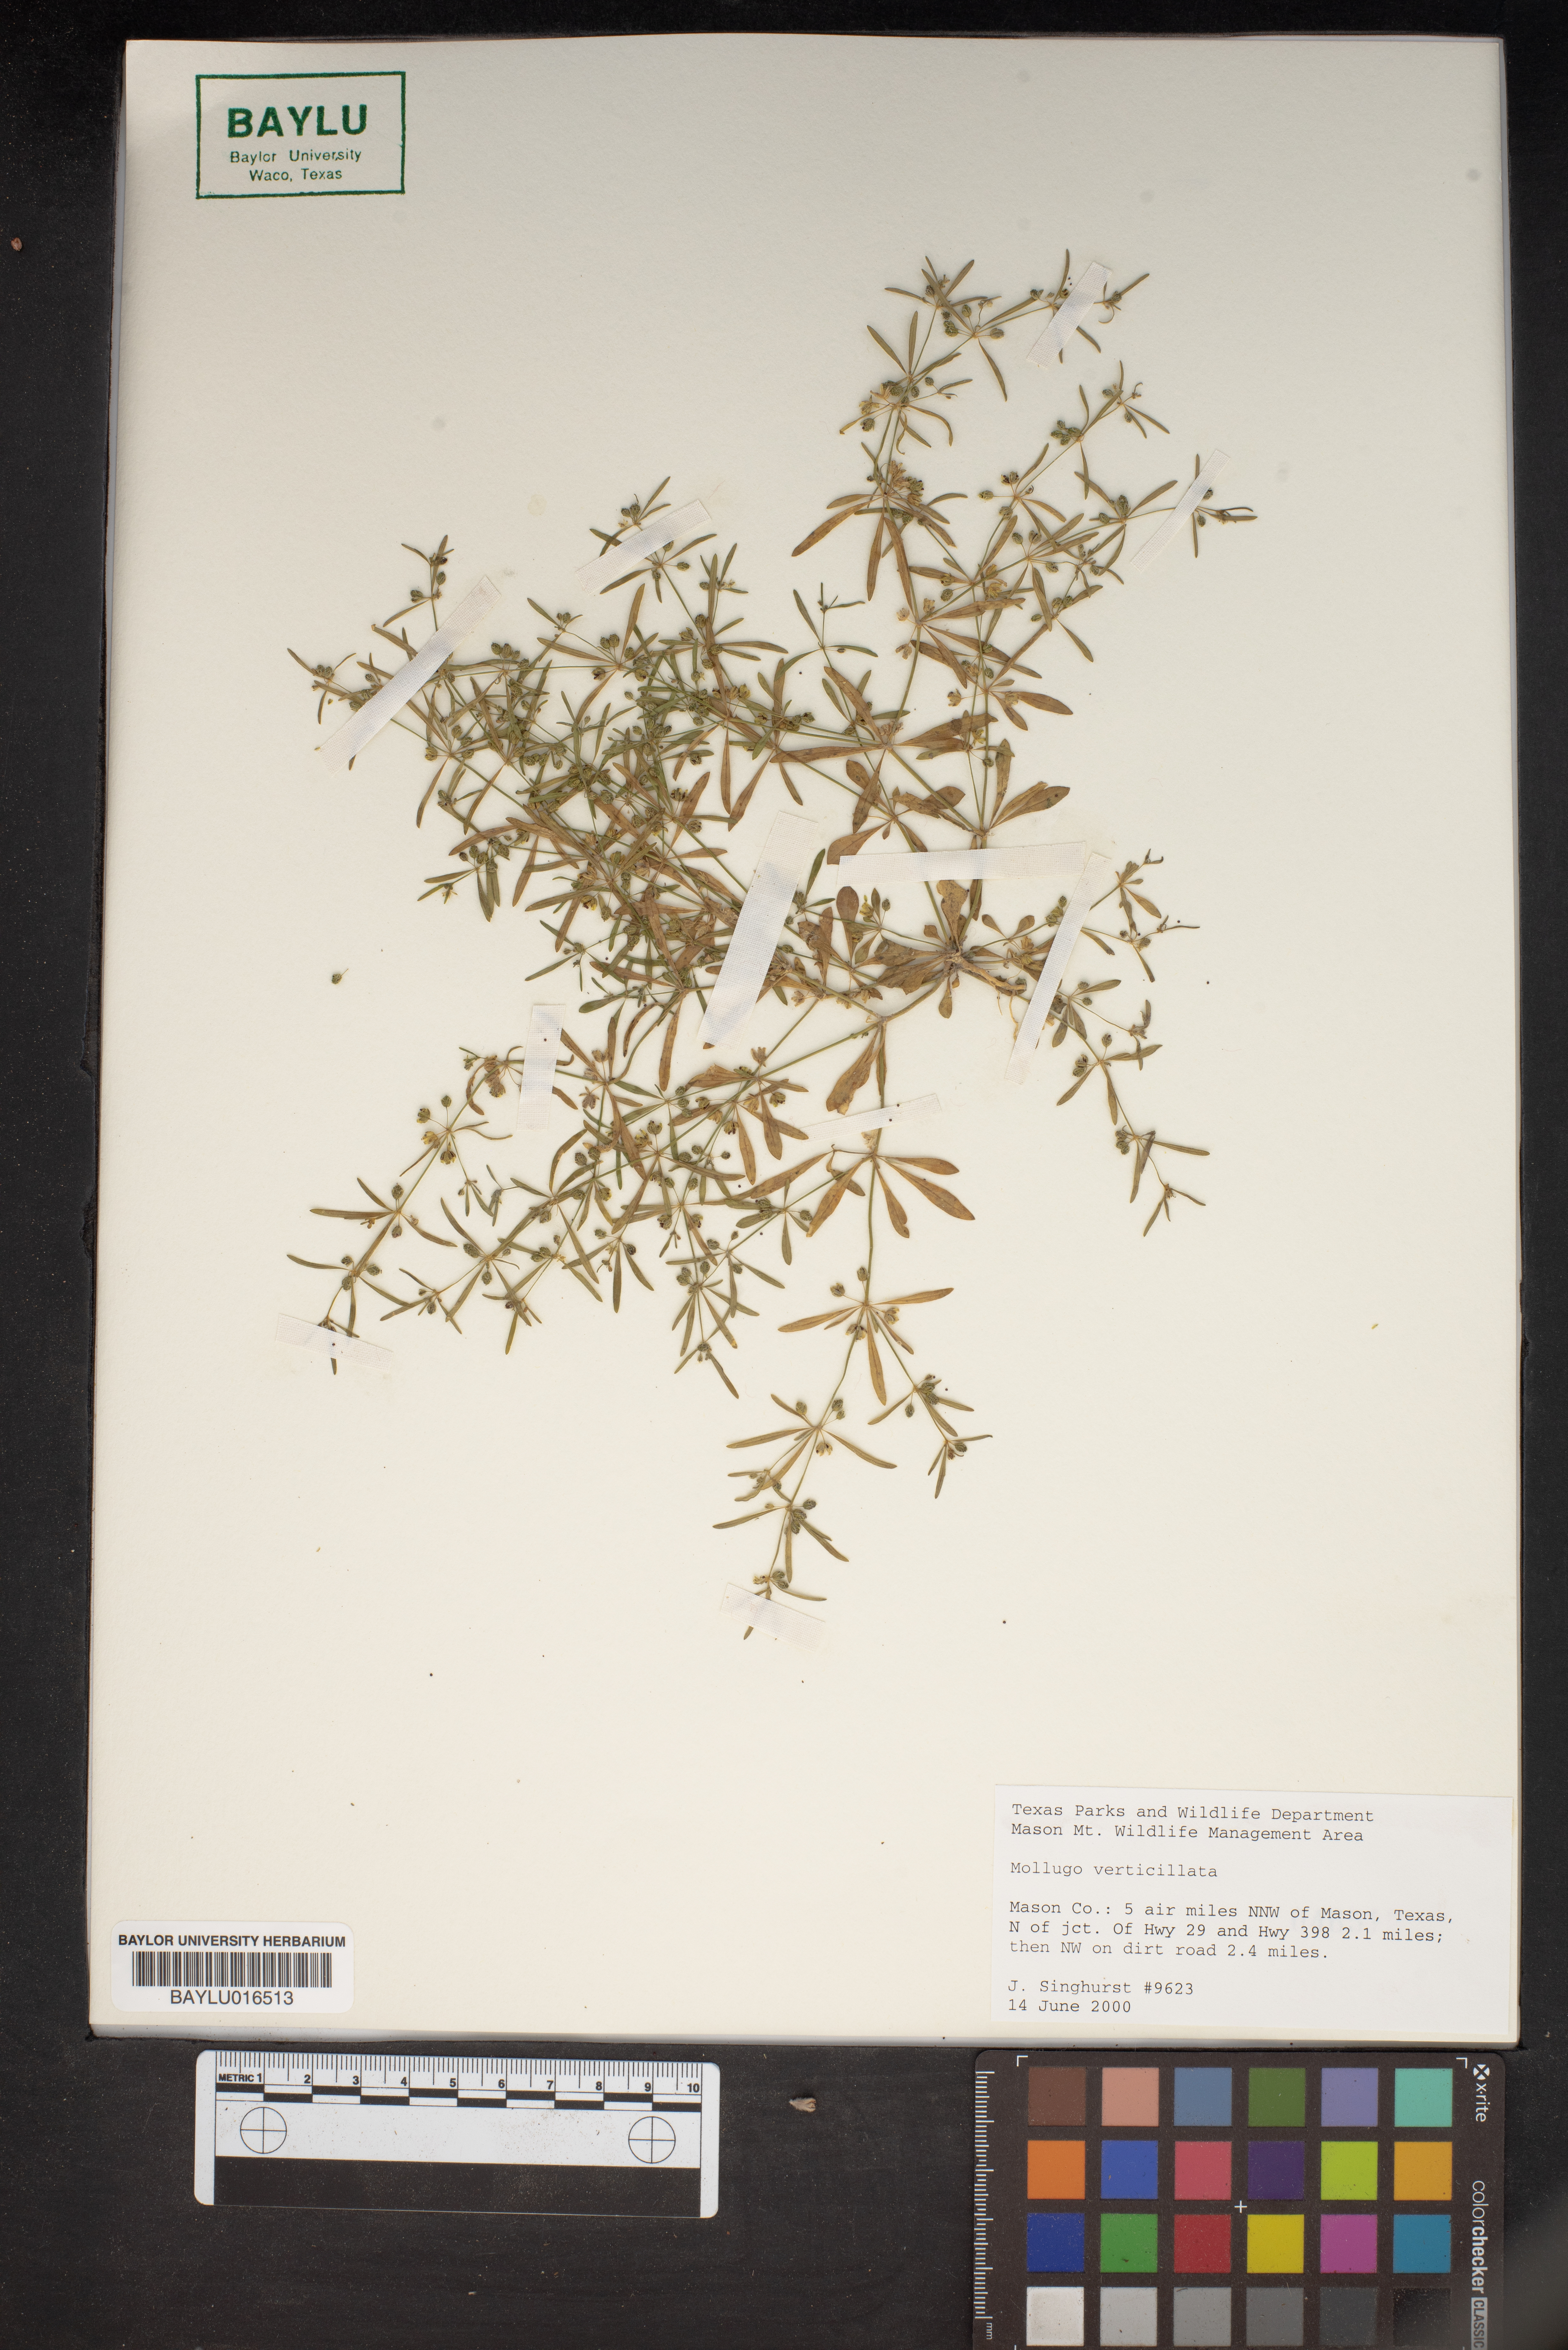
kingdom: Plantae
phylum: Tracheophyta
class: Magnoliopsida
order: Caryophyllales
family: Molluginaceae
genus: Mollugo
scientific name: Mollugo verticillata
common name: Green carpetweed
